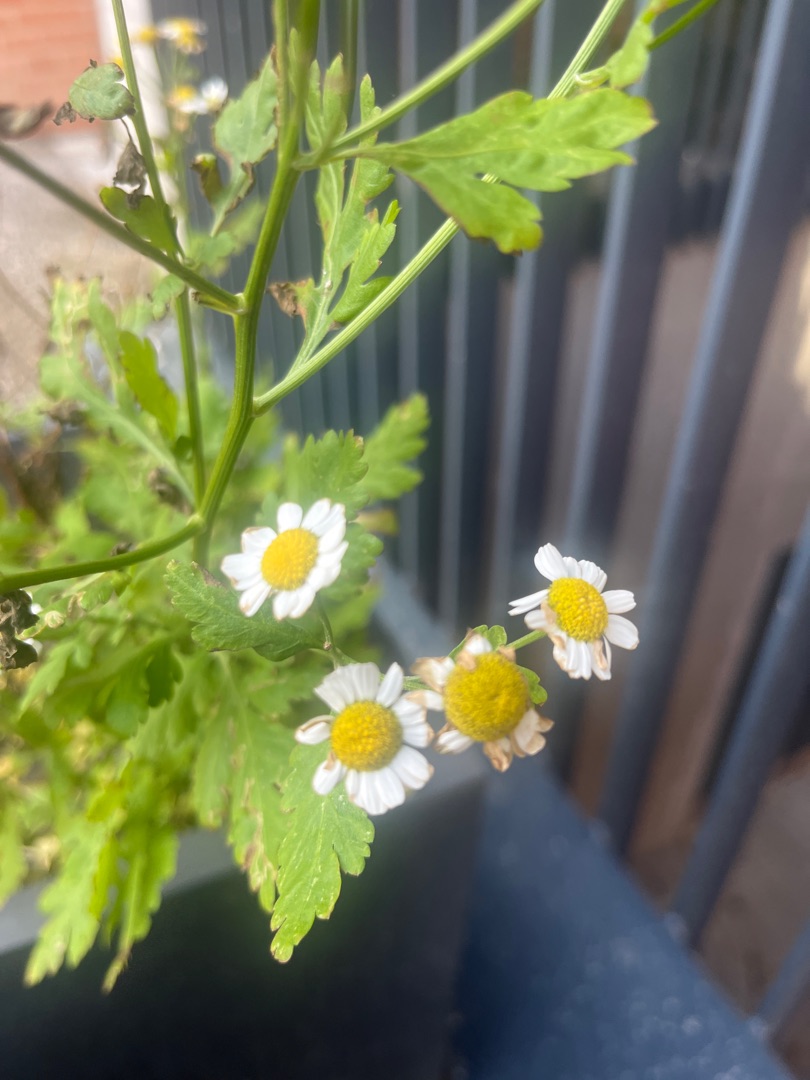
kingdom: Plantae
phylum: Tracheophyta
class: Magnoliopsida
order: Asterales
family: Asteraceae
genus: Tanacetum
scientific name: Tanacetum parthenium
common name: Matrem
